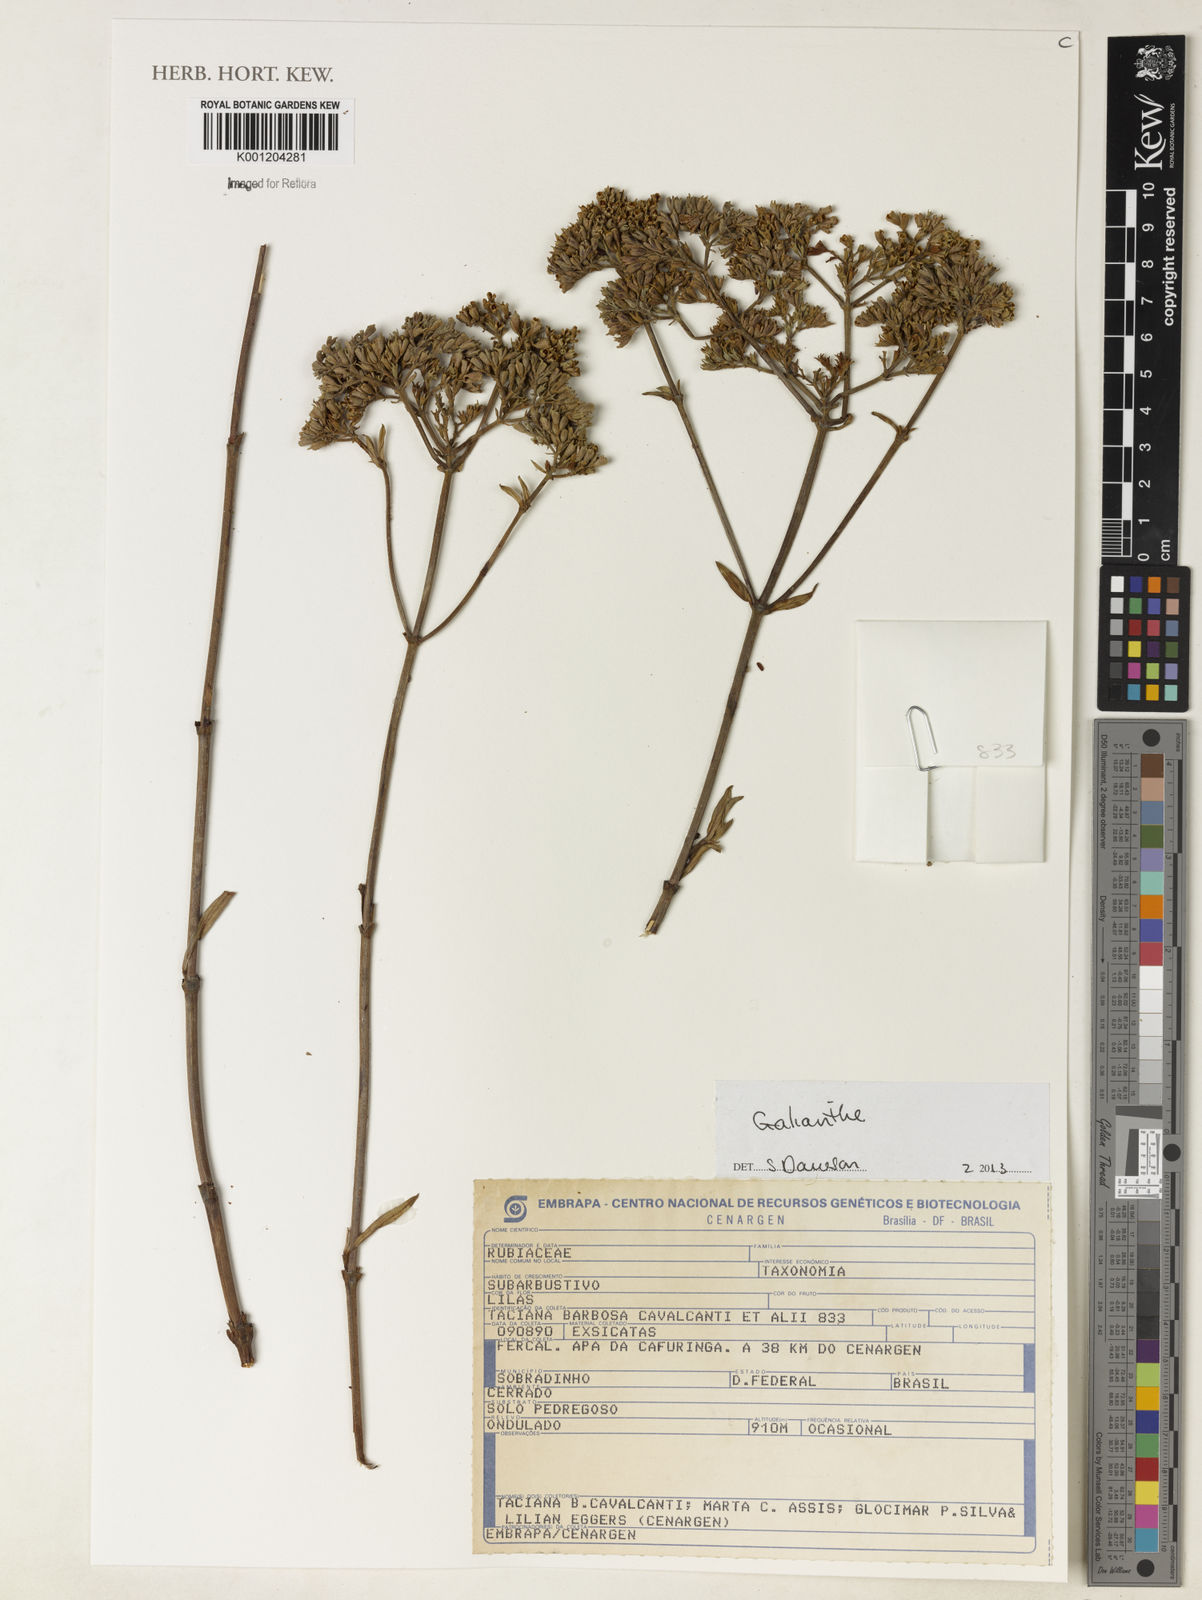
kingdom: Plantae
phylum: Tracheophyta
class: Magnoliopsida
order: Gentianales
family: Rubiaceae
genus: Galianthe
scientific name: Galianthe
